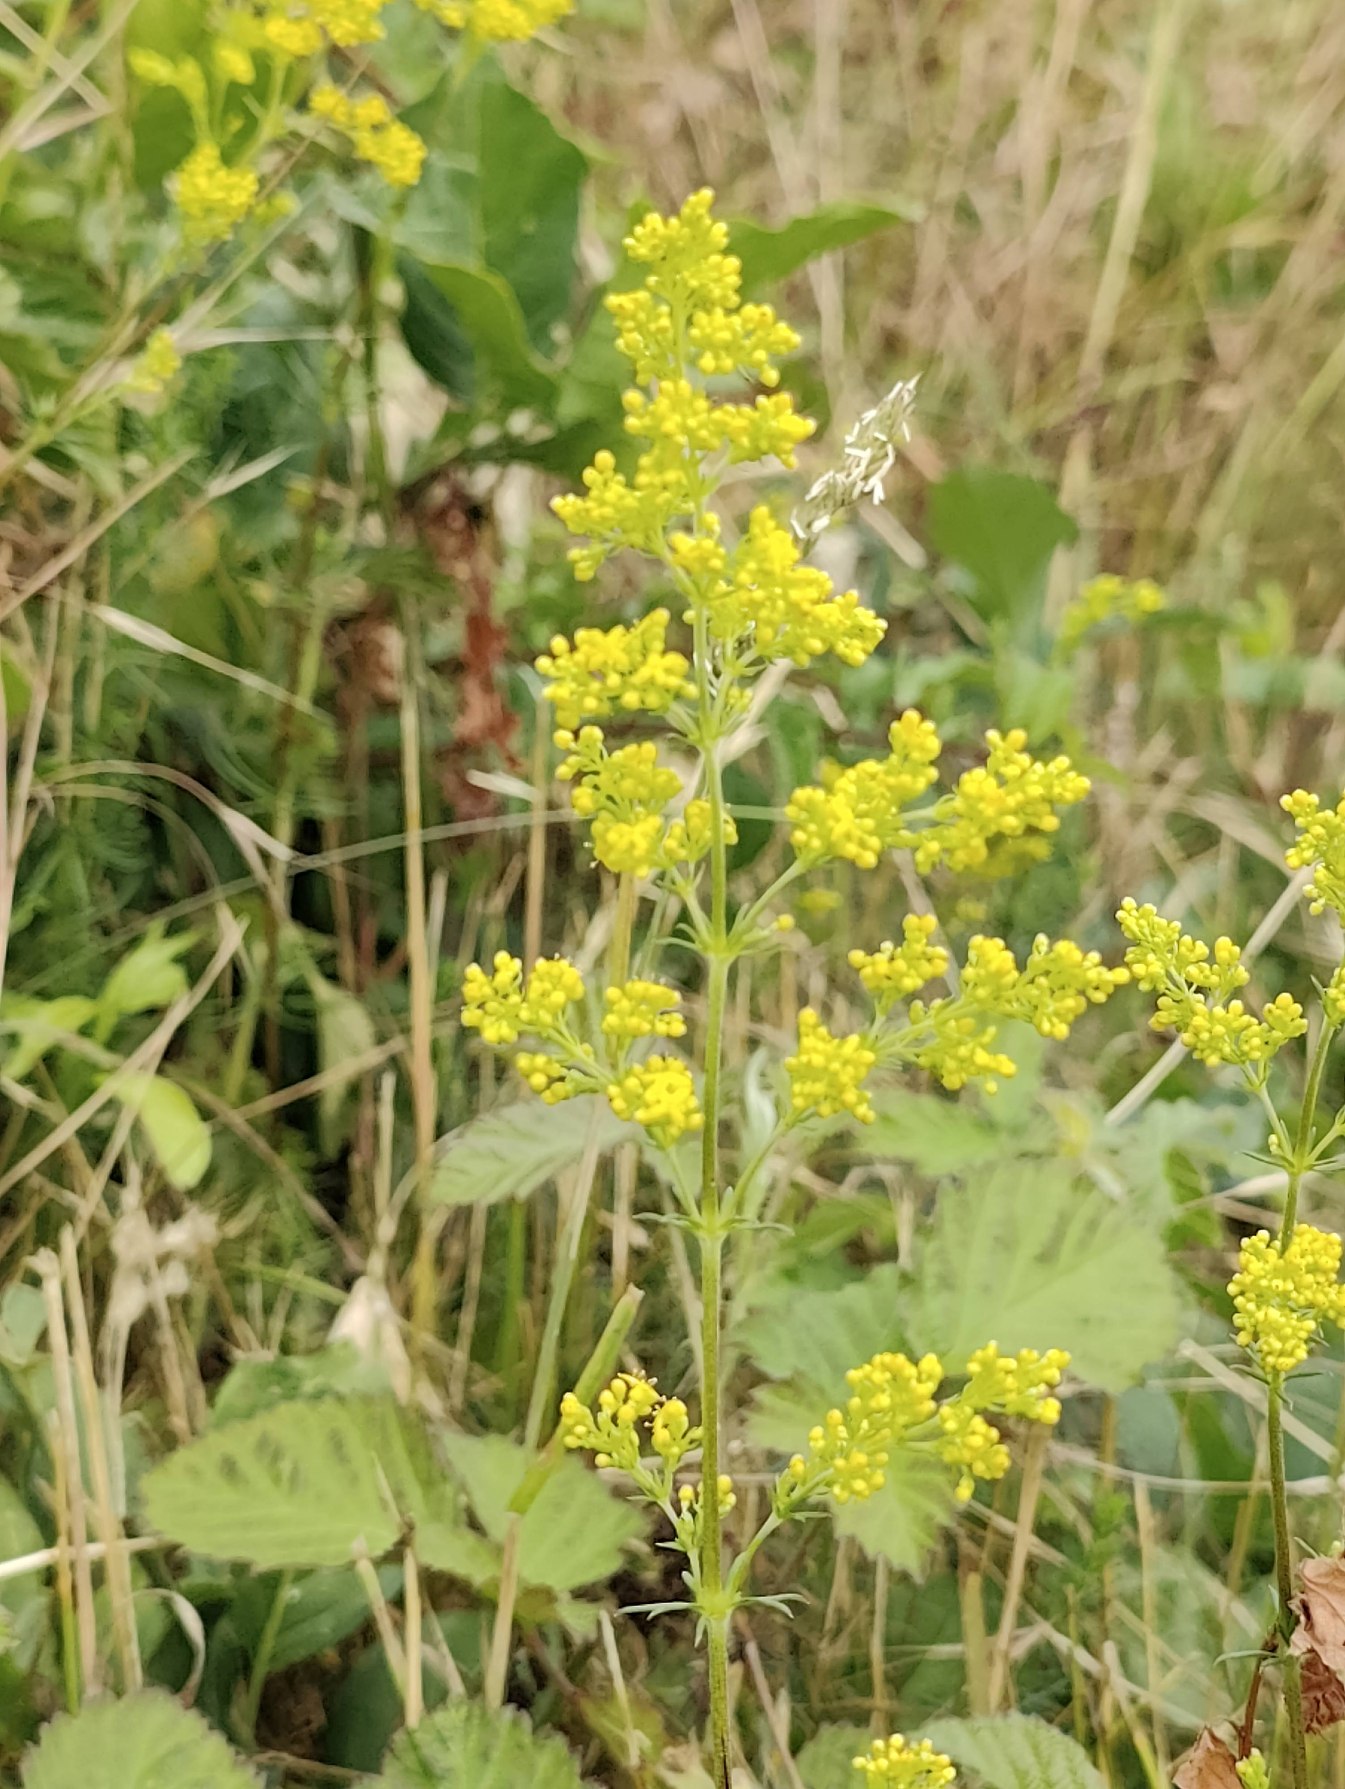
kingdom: Plantae
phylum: Tracheophyta
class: Magnoliopsida
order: Gentianales
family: Rubiaceae
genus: Galium
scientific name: Galium verum
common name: Gul snerre
